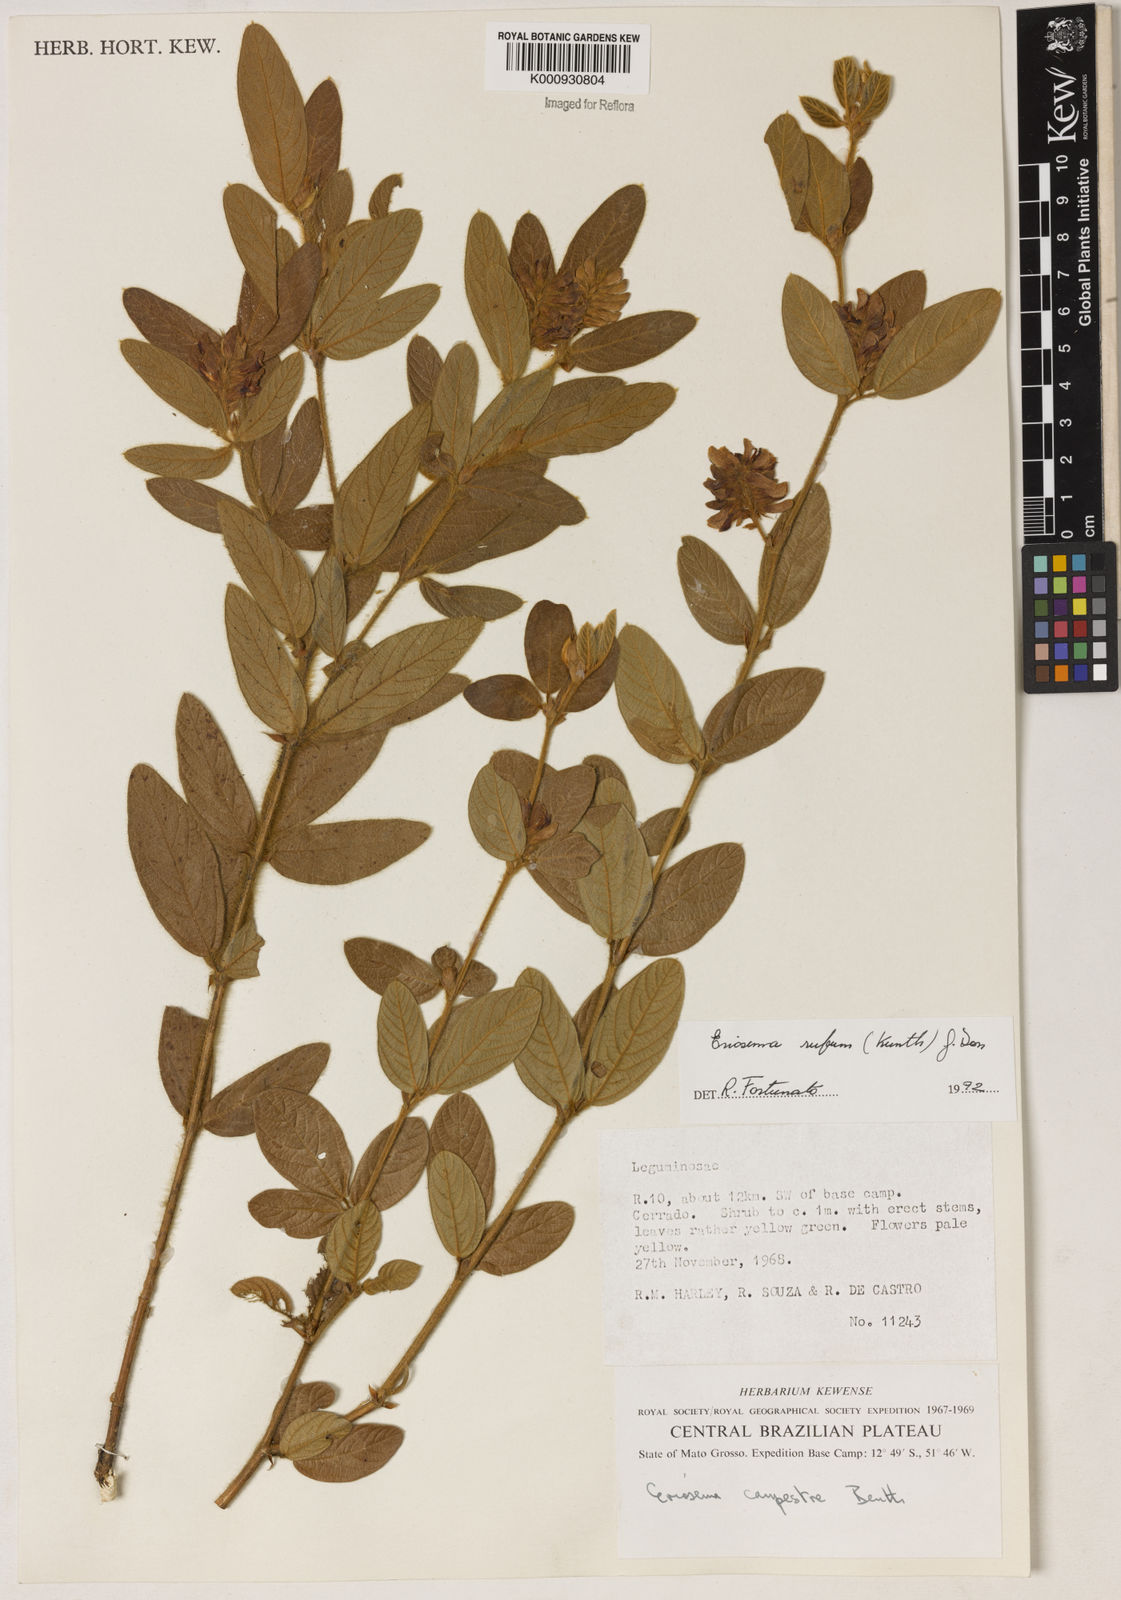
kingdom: Plantae
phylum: Tracheophyta
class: Magnoliopsida
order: Fabales
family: Fabaceae
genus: Eriosema
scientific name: Eriosema rufum
